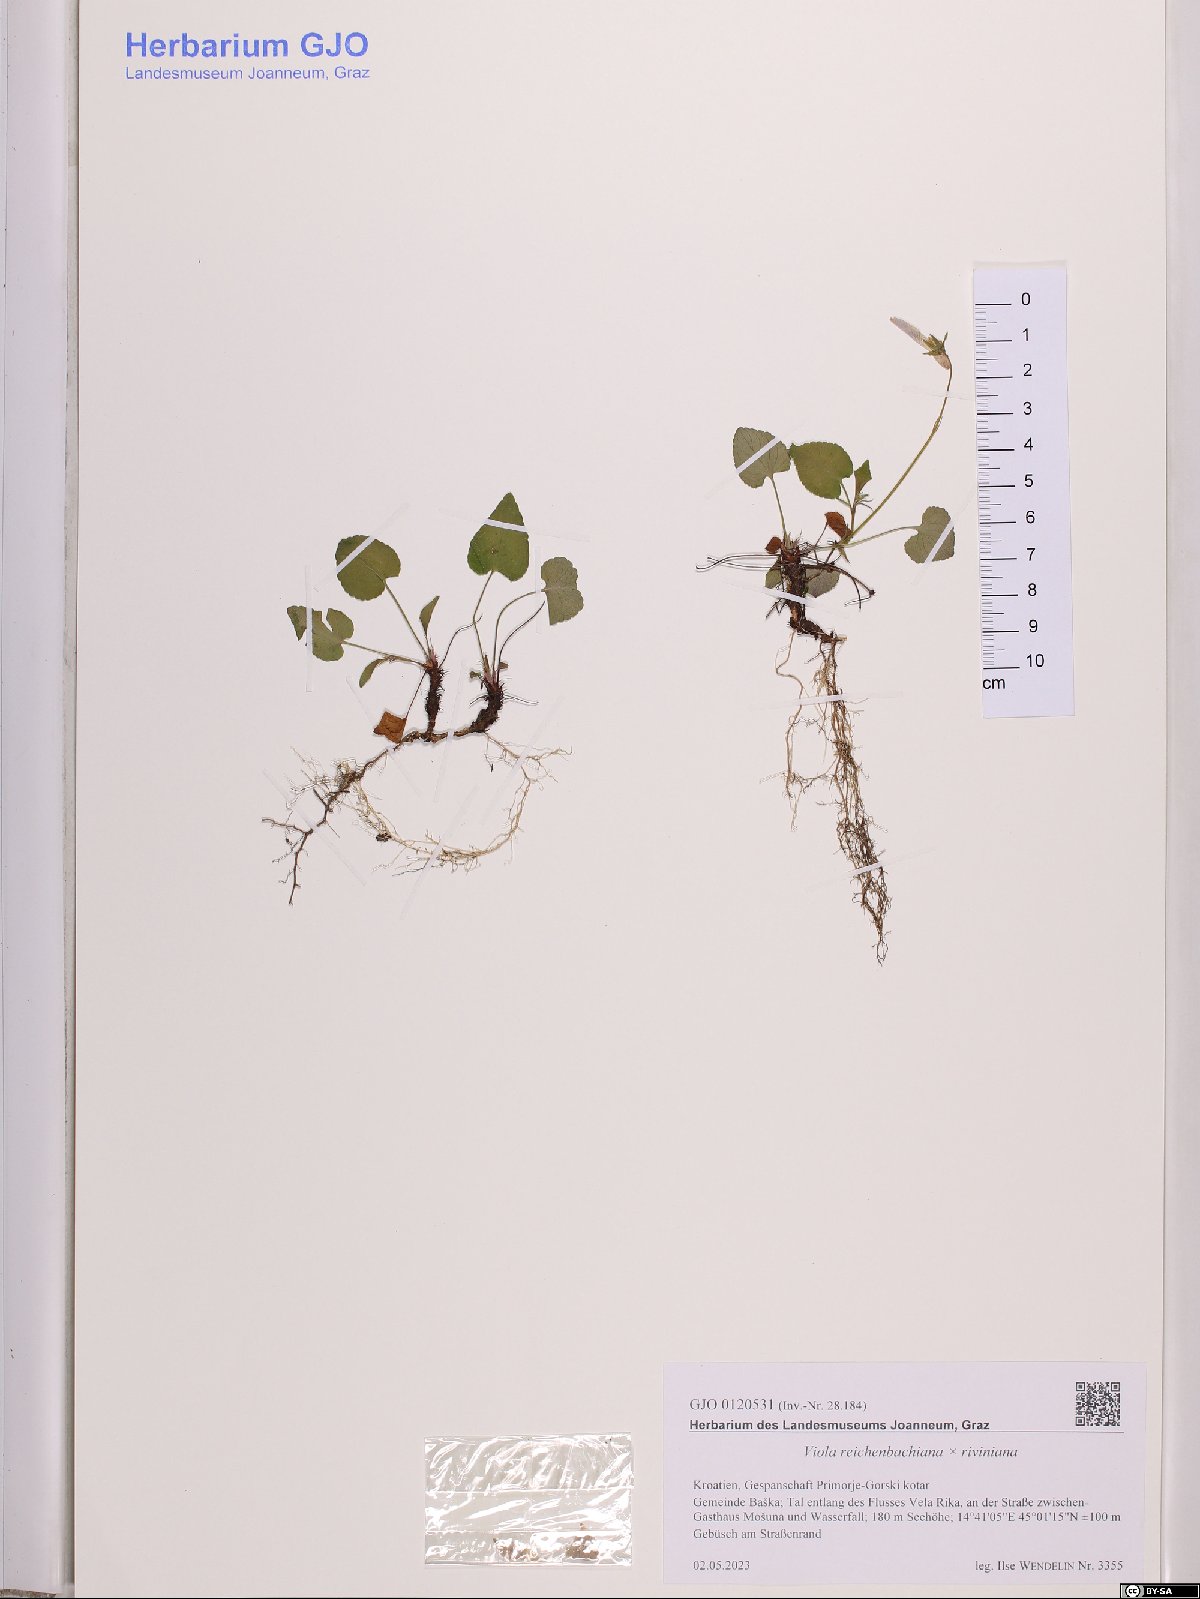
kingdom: Plantae
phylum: Tracheophyta
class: Magnoliopsida
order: Malpighiales
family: Violaceae
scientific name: Violaceae
